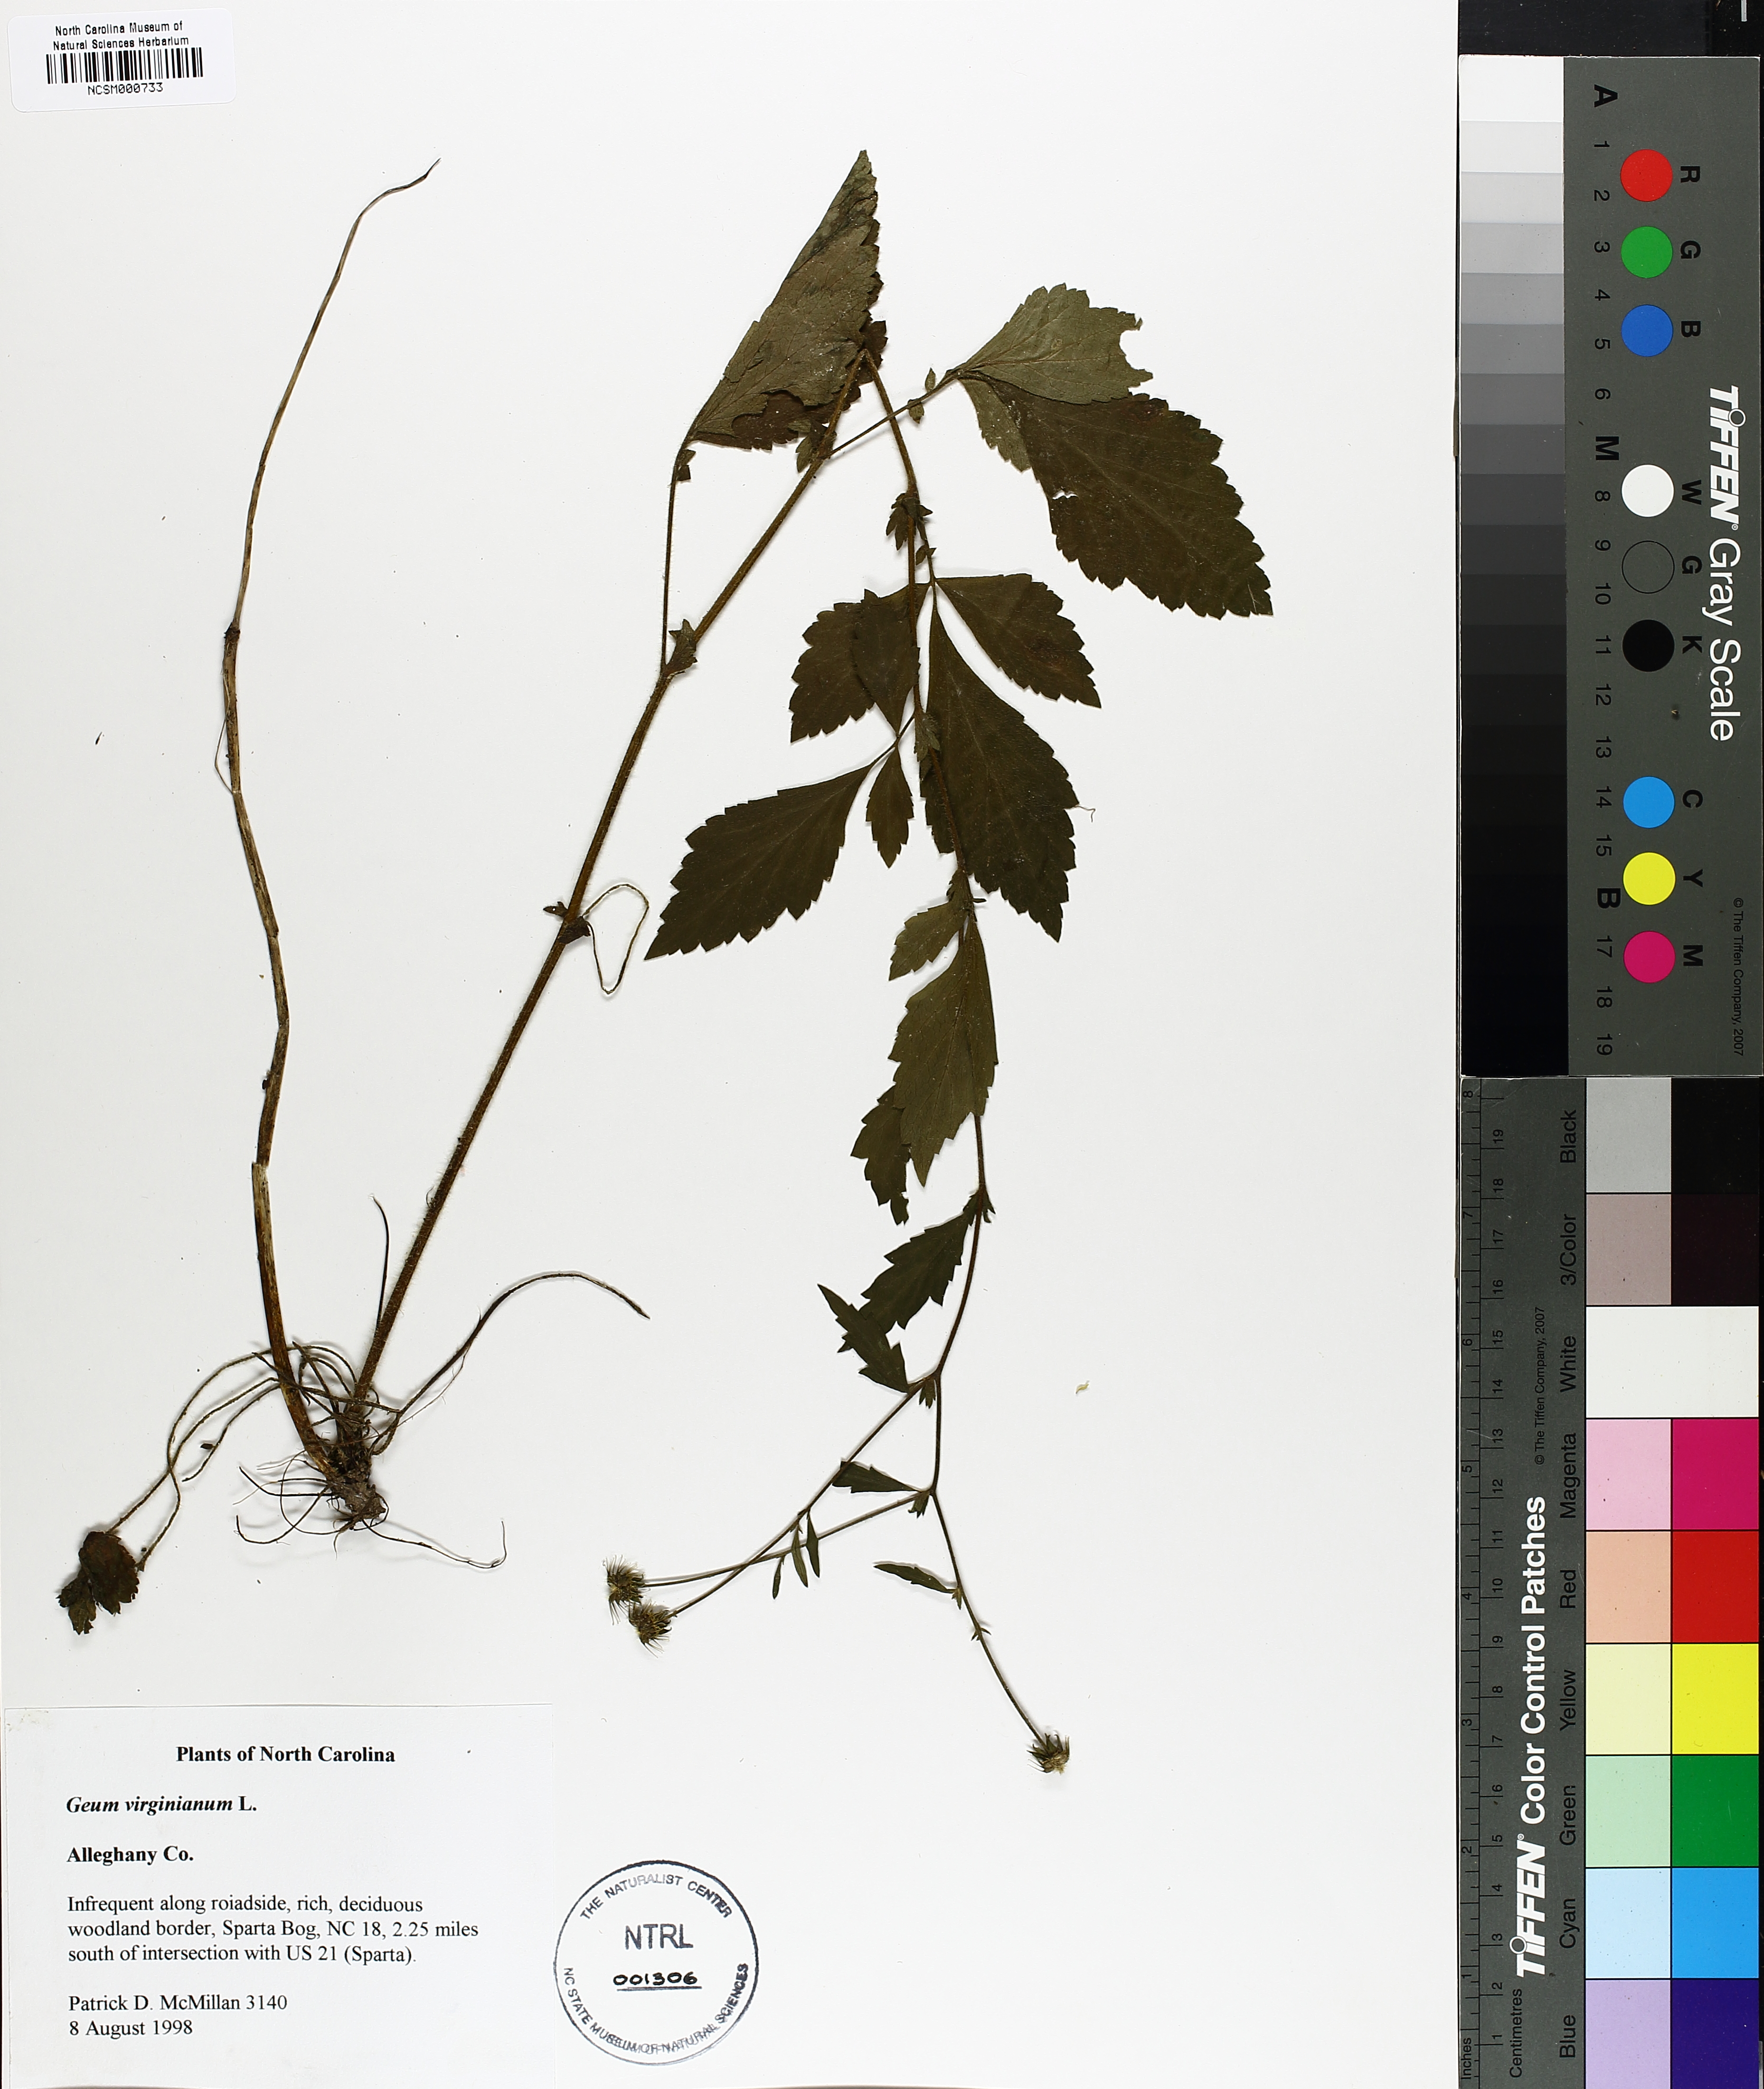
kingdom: Plantae
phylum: Tracheophyta
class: Magnoliopsida
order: Rosales
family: Rosaceae
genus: Geum
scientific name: Geum virginianum
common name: Cream avens
